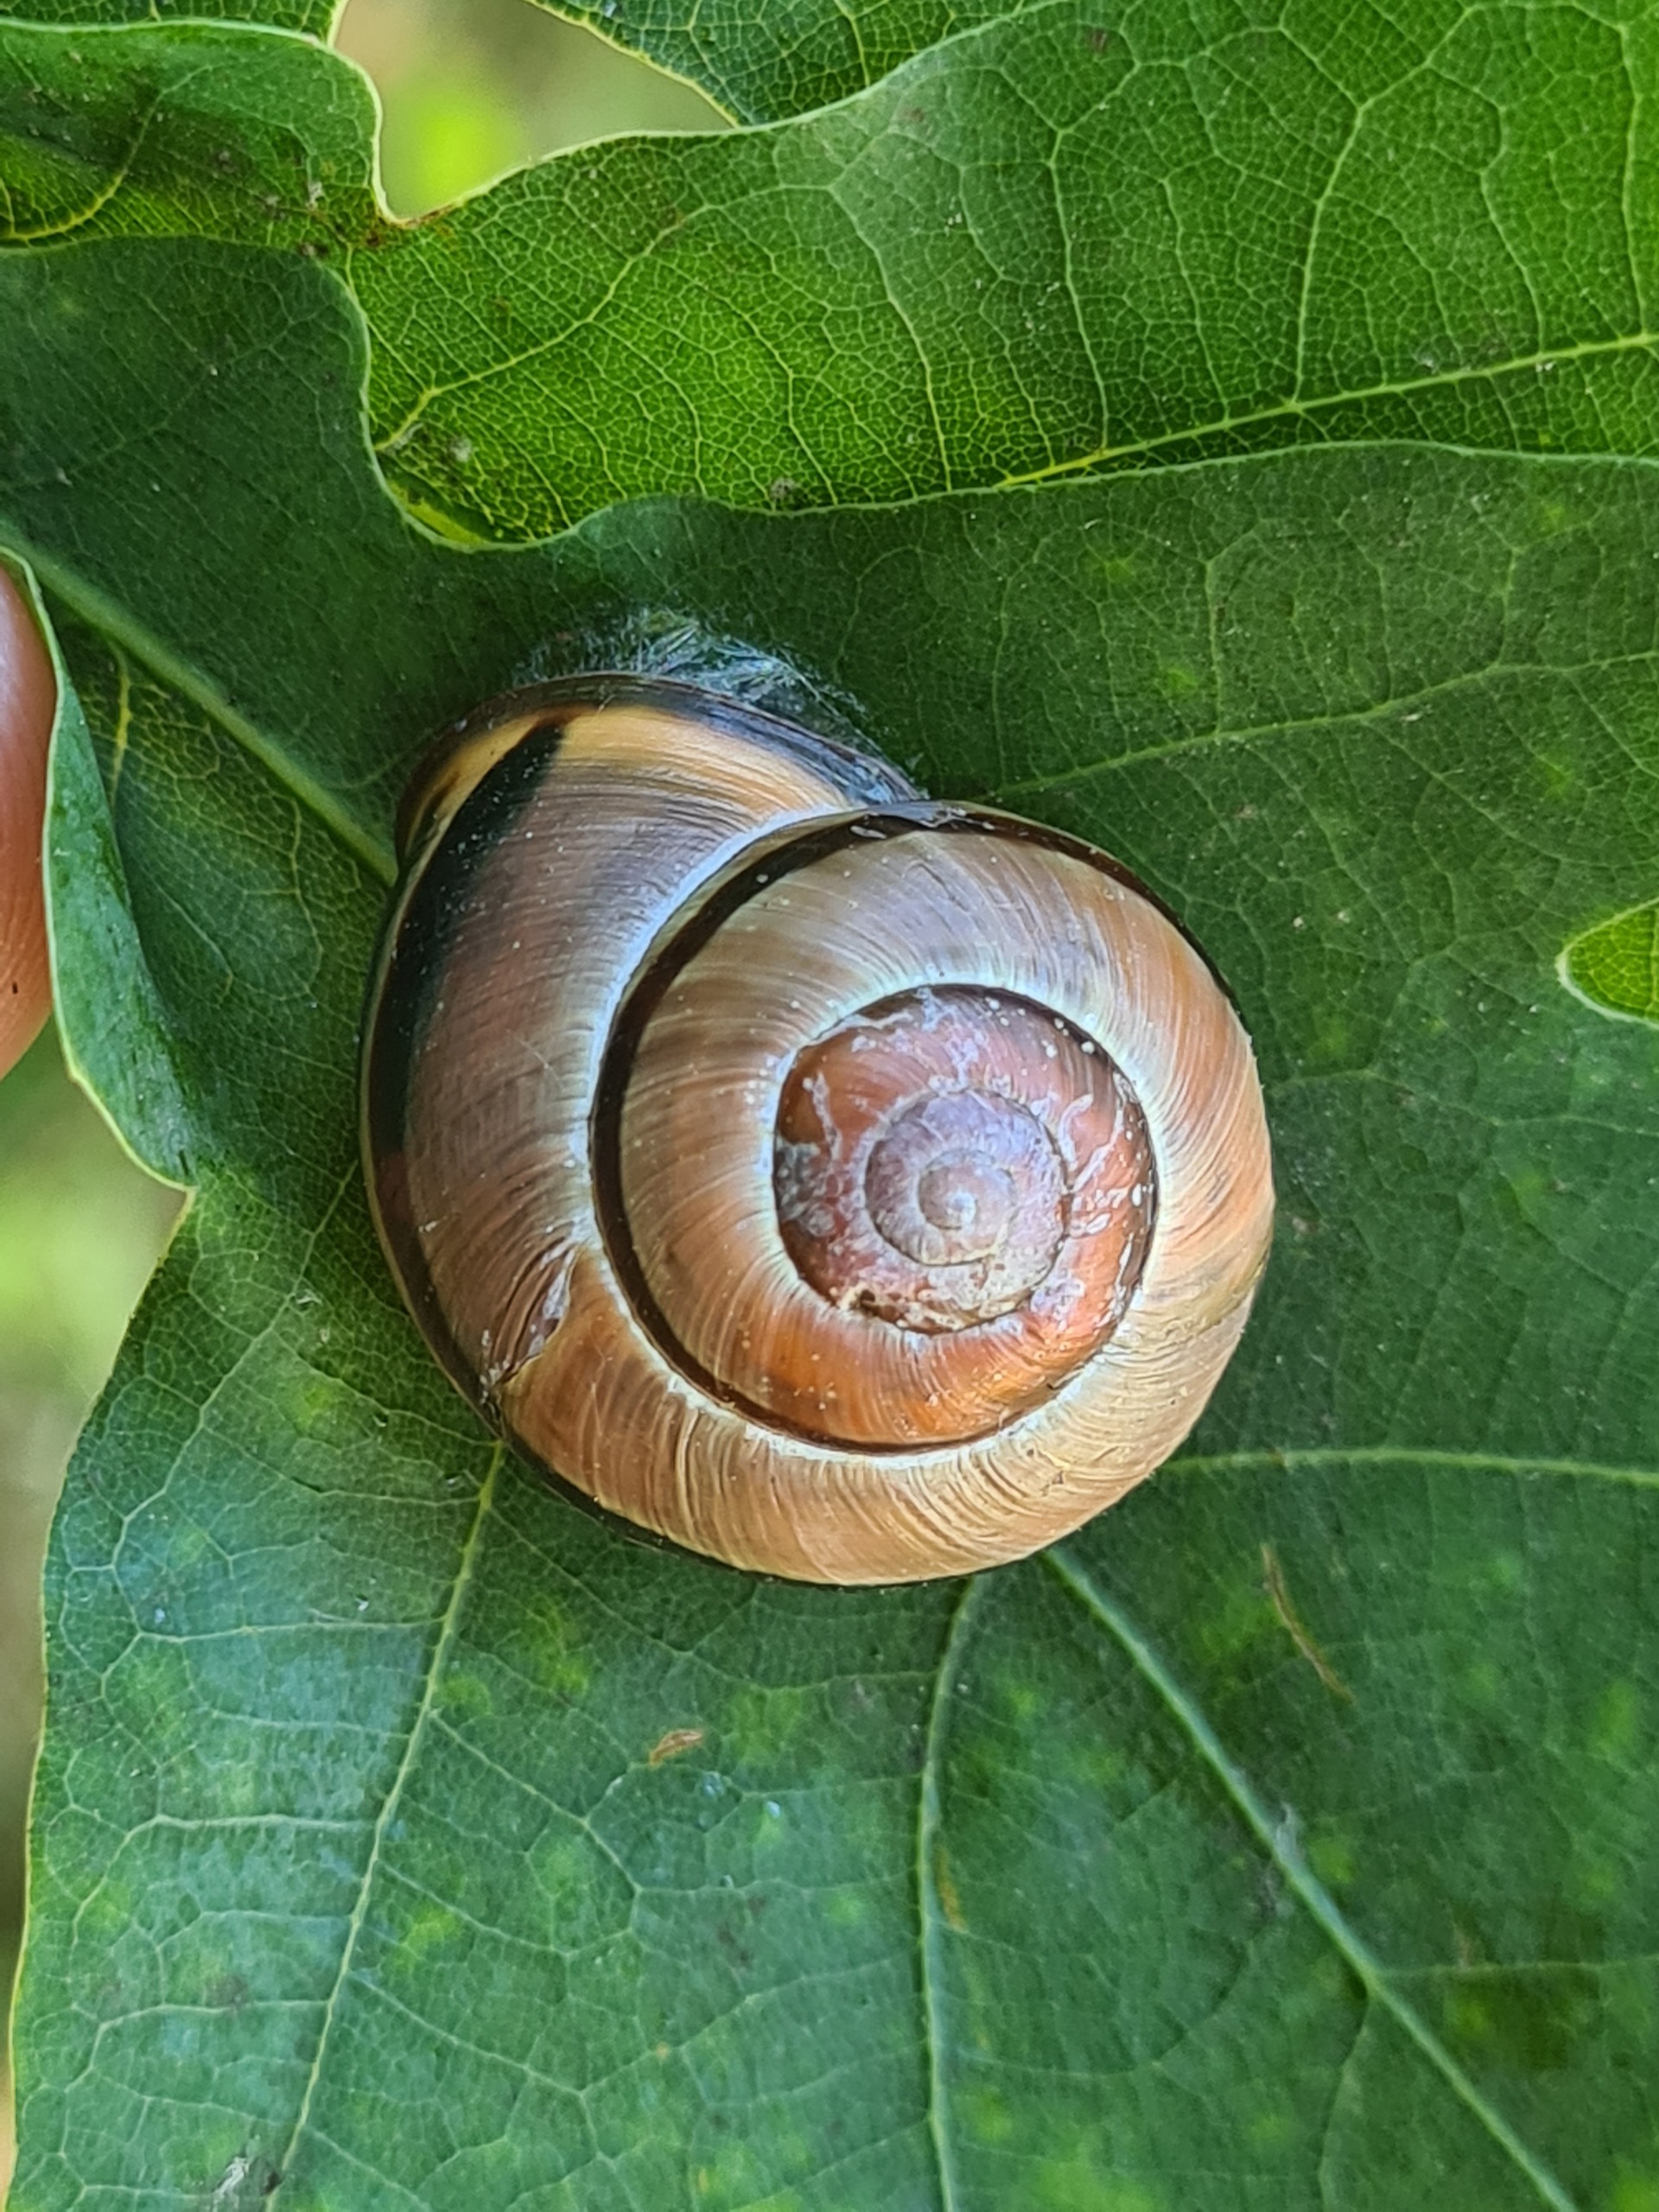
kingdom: Animalia
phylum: Mollusca
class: Gastropoda
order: Stylommatophora
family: Helicidae
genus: Cepaea
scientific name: Cepaea nemoralis
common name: Lundsnegl
